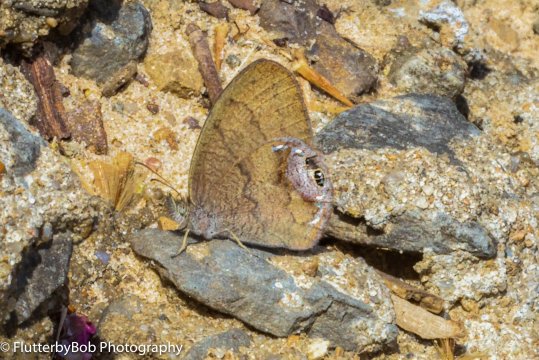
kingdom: Animalia
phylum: Arthropoda
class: Insecta
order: Lepidoptera
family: Nymphalidae
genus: Euptychia
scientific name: Euptychia cornelius
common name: Gemmed Satyr
